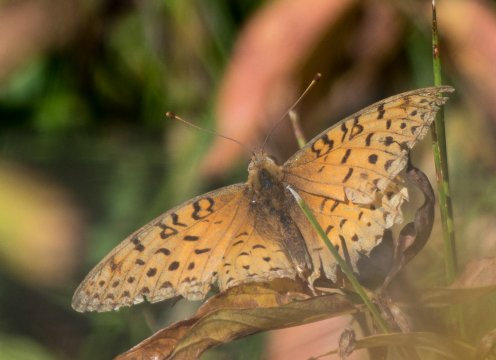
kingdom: Animalia
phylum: Arthropoda
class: Insecta
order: Lepidoptera
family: Nymphalidae
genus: Speyeria
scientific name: Speyeria atlantis
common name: Northwestern Fritillary
